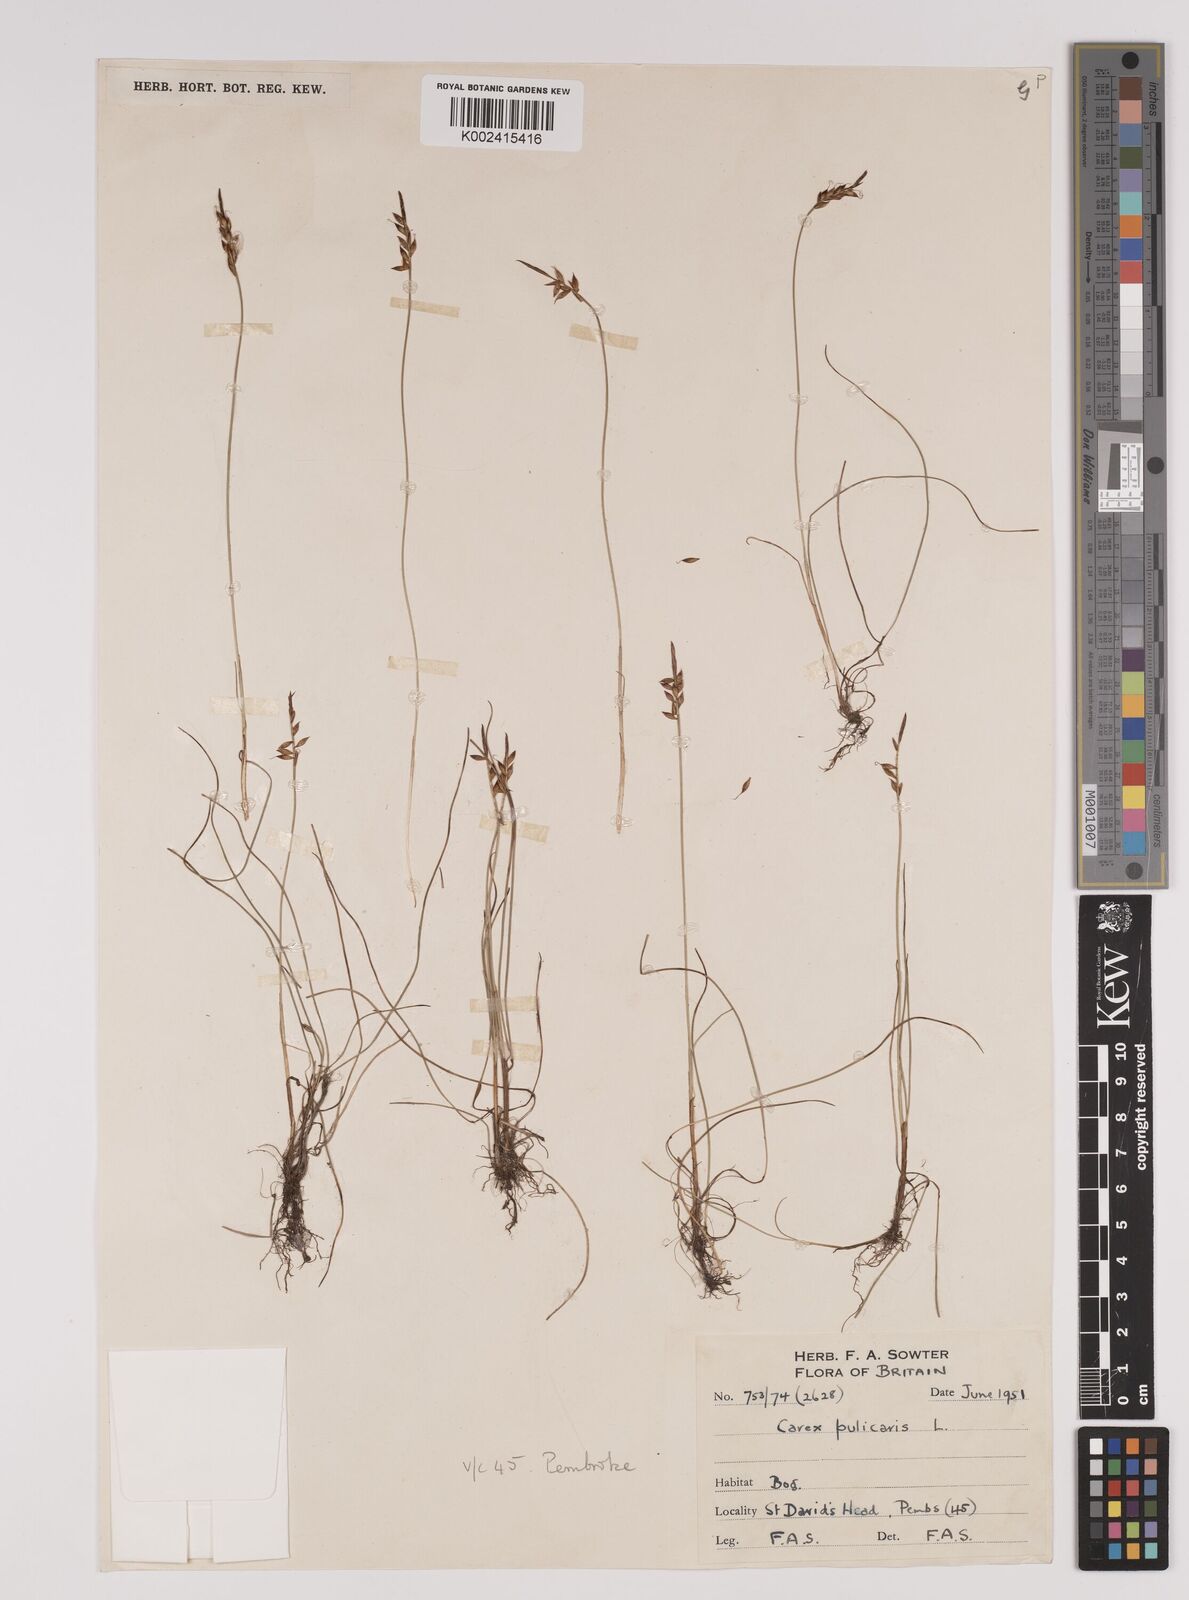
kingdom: Plantae
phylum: Tracheophyta
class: Liliopsida
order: Poales
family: Cyperaceae
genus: Carex
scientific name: Carex pulicaris
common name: Flea sedge
